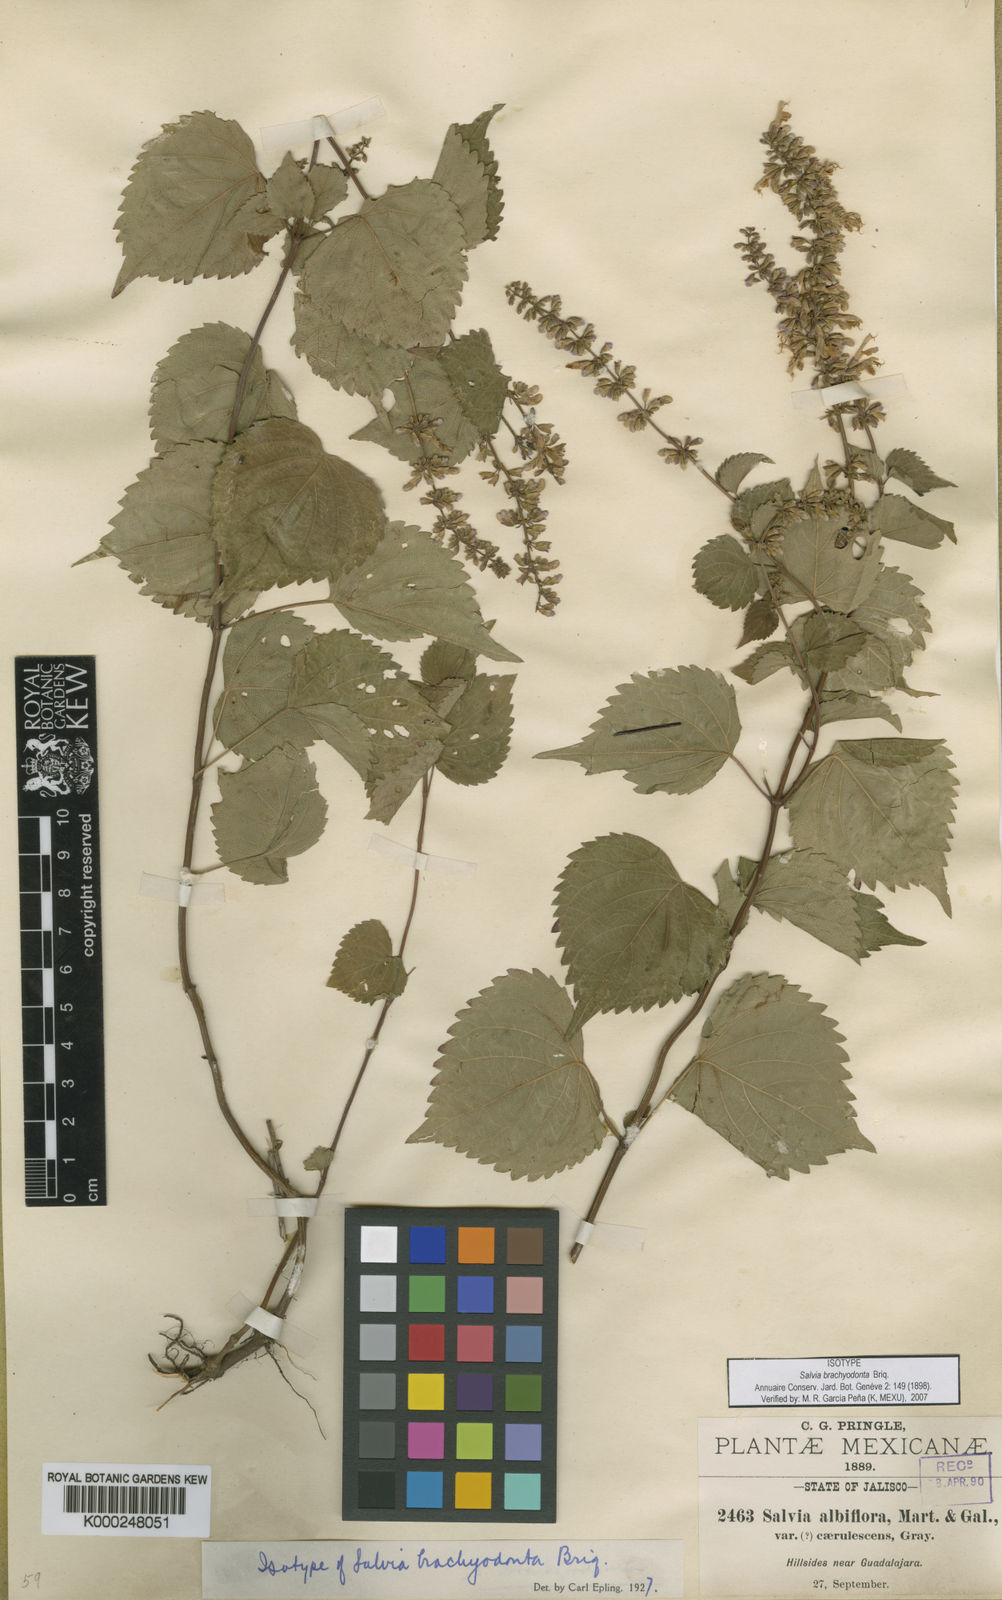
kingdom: Plantae
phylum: Tracheophyta
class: Magnoliopsida
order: Lamiales
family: Lamiaceae
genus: Salvia
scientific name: Salvia brachyodonta
